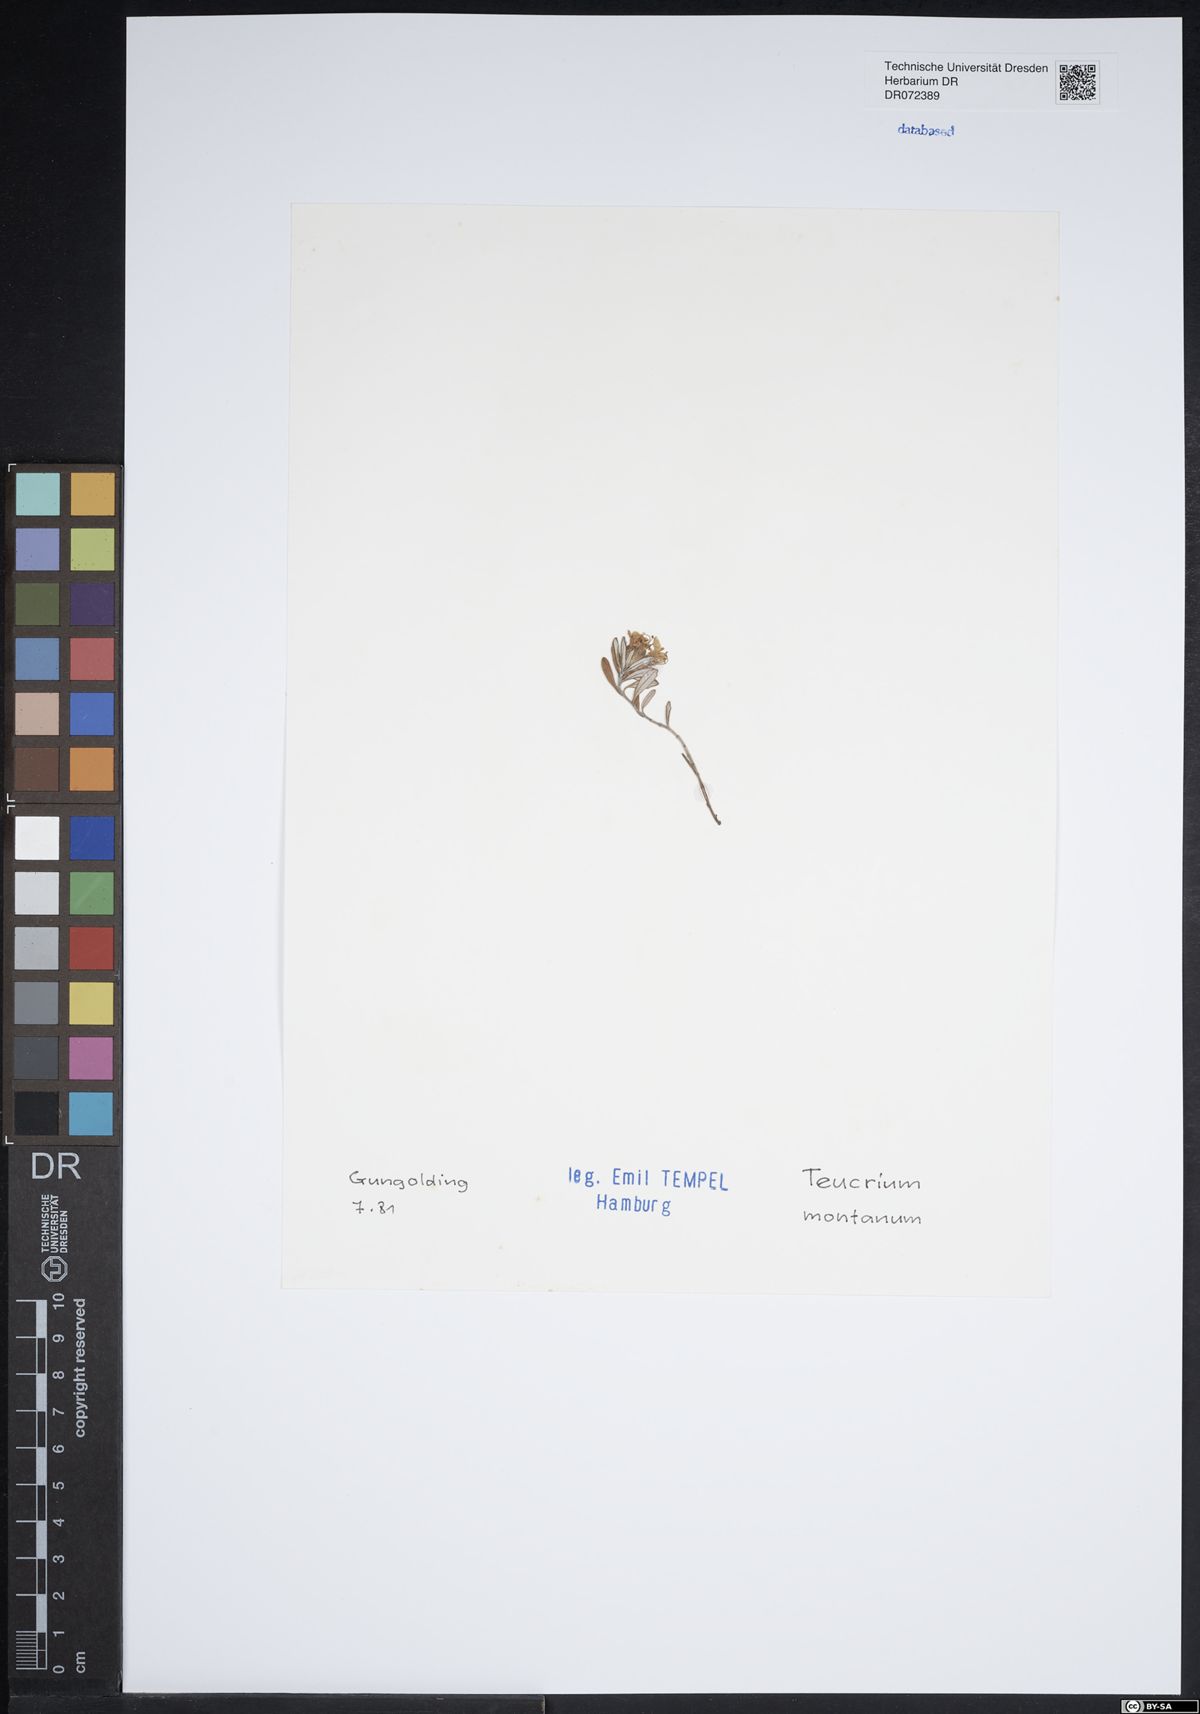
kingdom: Plantae
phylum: Tracheophyta
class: Magnoliopsida
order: Lamiales
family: Lamiaceae
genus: Teucrium
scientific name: Teucrium montanum
